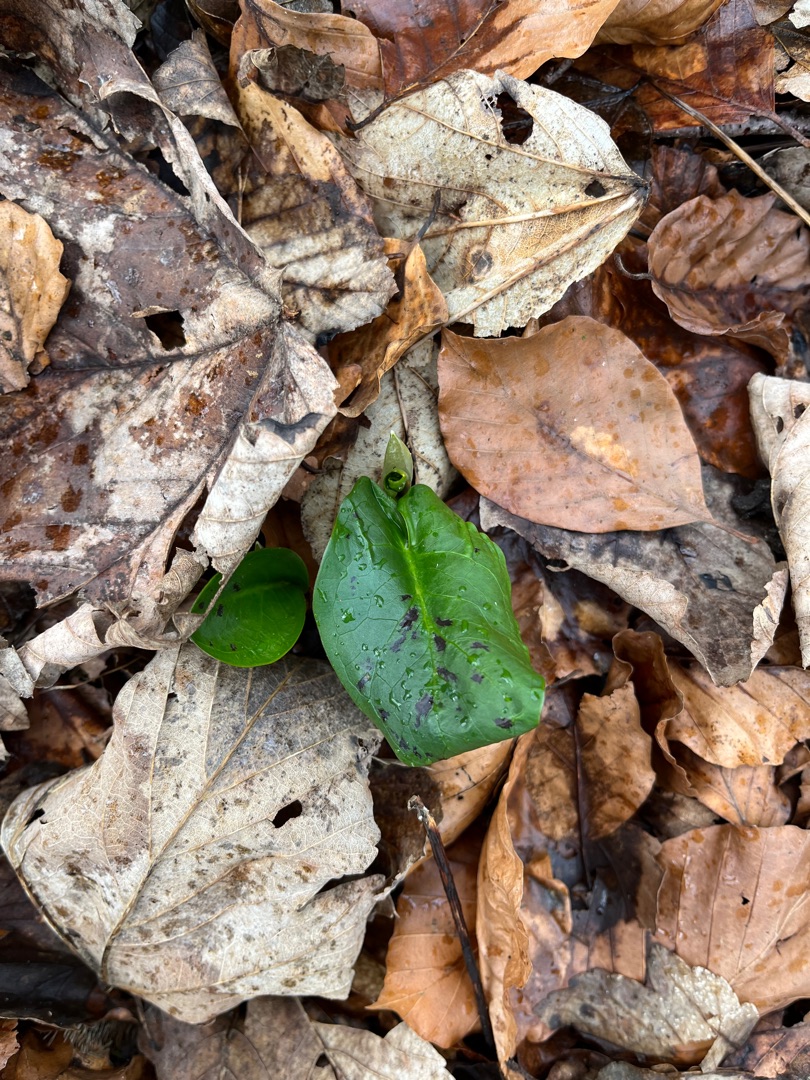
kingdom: Plantae
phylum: Tracheophyta
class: Liliopsida
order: Alismatales
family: Araceae
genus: Arum
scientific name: Arum maculatum
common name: Plettet arum
